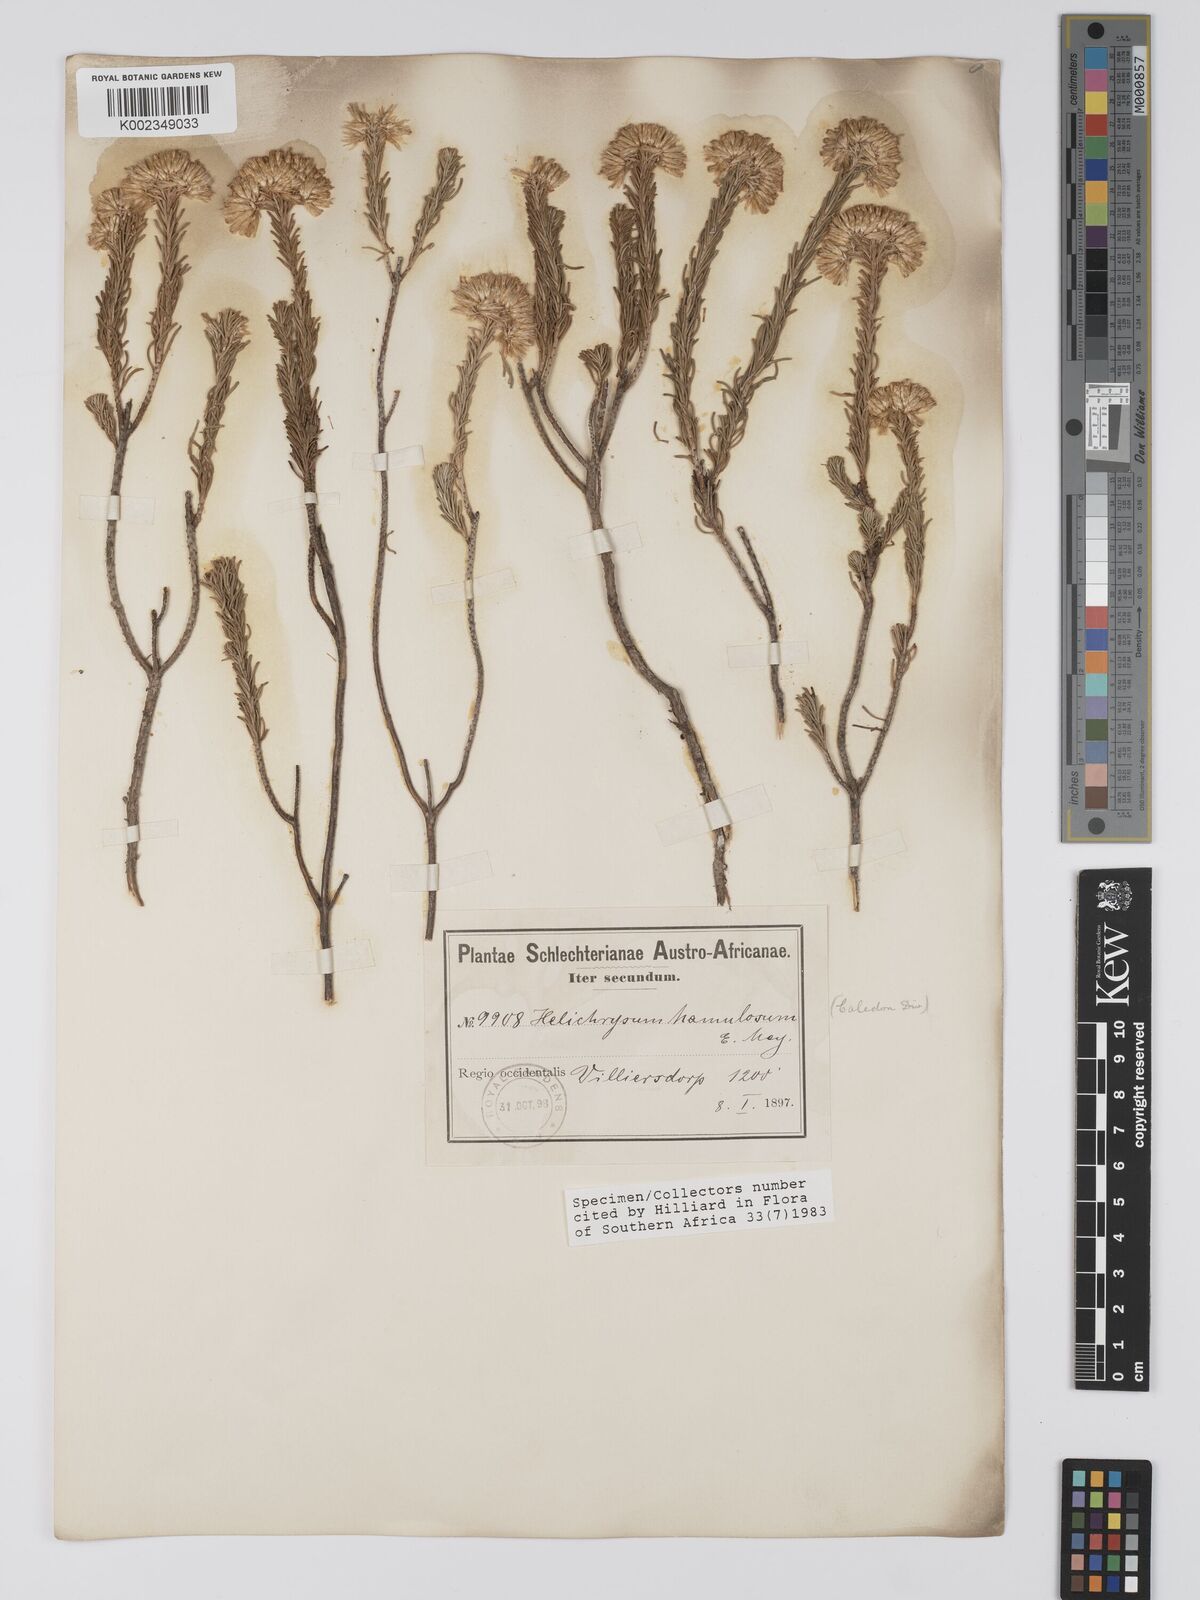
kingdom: Plantae
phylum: Tracheophyta
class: Magnoliopsida
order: Asterales
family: Asteraceae
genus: Helichrysum
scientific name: Helichrysum hamulosum
